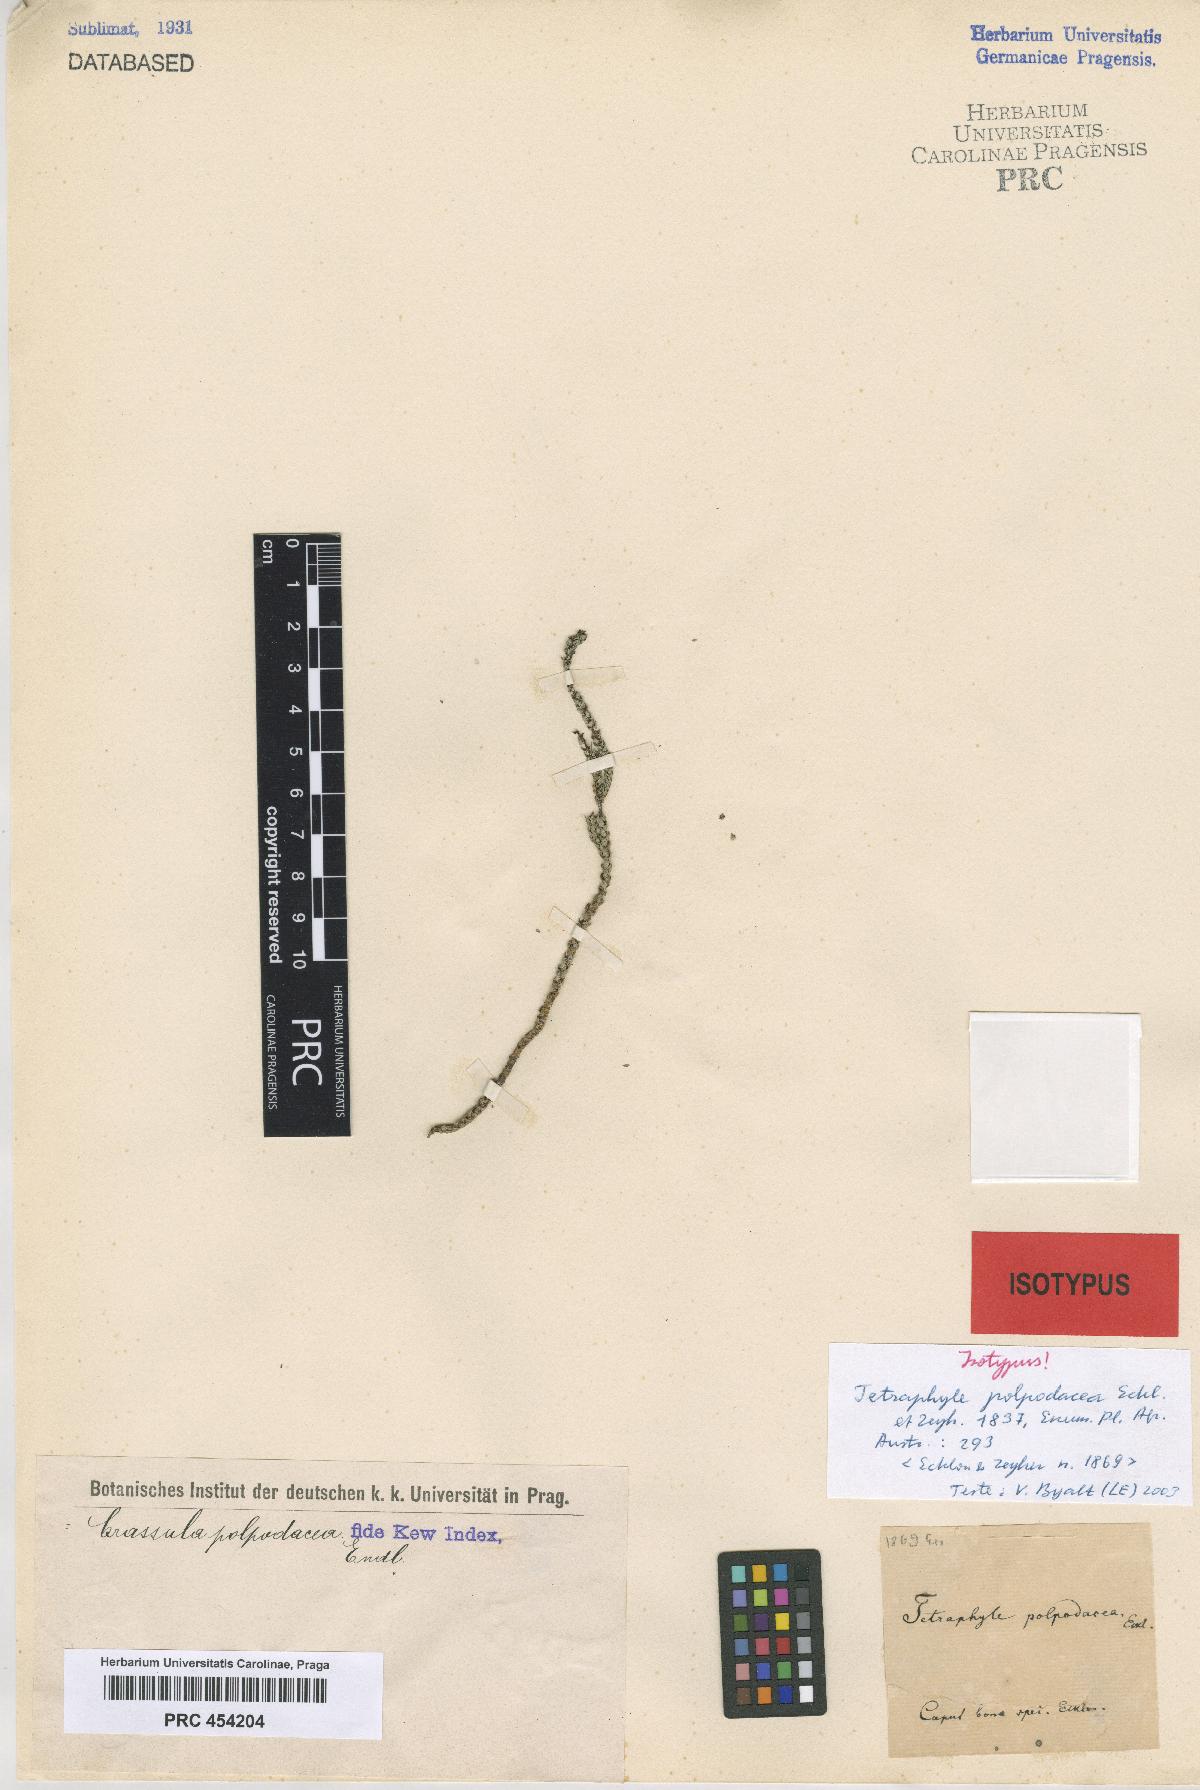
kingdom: Plantae
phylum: Tracheophyta
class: Magnoliopsida
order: Saxifragales
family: Crassulaceae
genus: Crassula
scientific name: Crassula muscosa
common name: Toy-cypress
